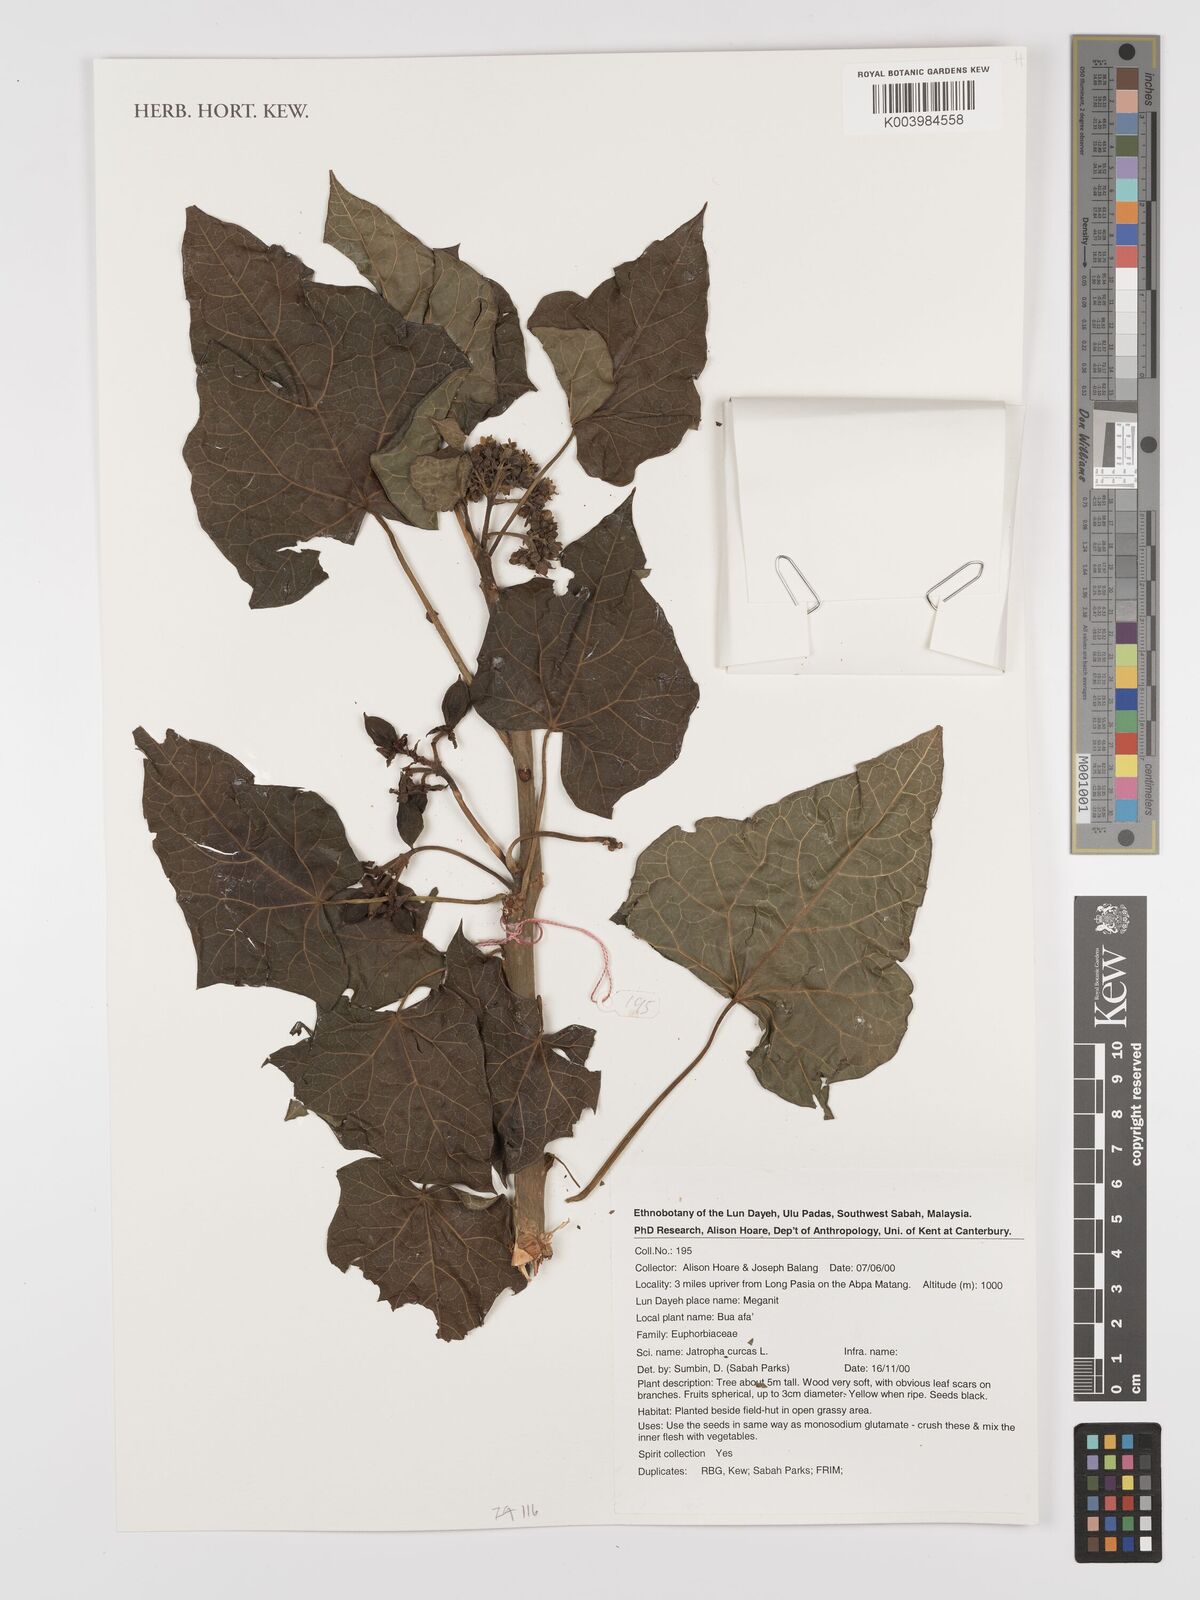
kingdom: Plantae
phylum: Tracheophyta
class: Magnoliopsida
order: Malpighiales
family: Euphorbiaceae
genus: Jatropha
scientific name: Jatropha curcas
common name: Barbados nut
